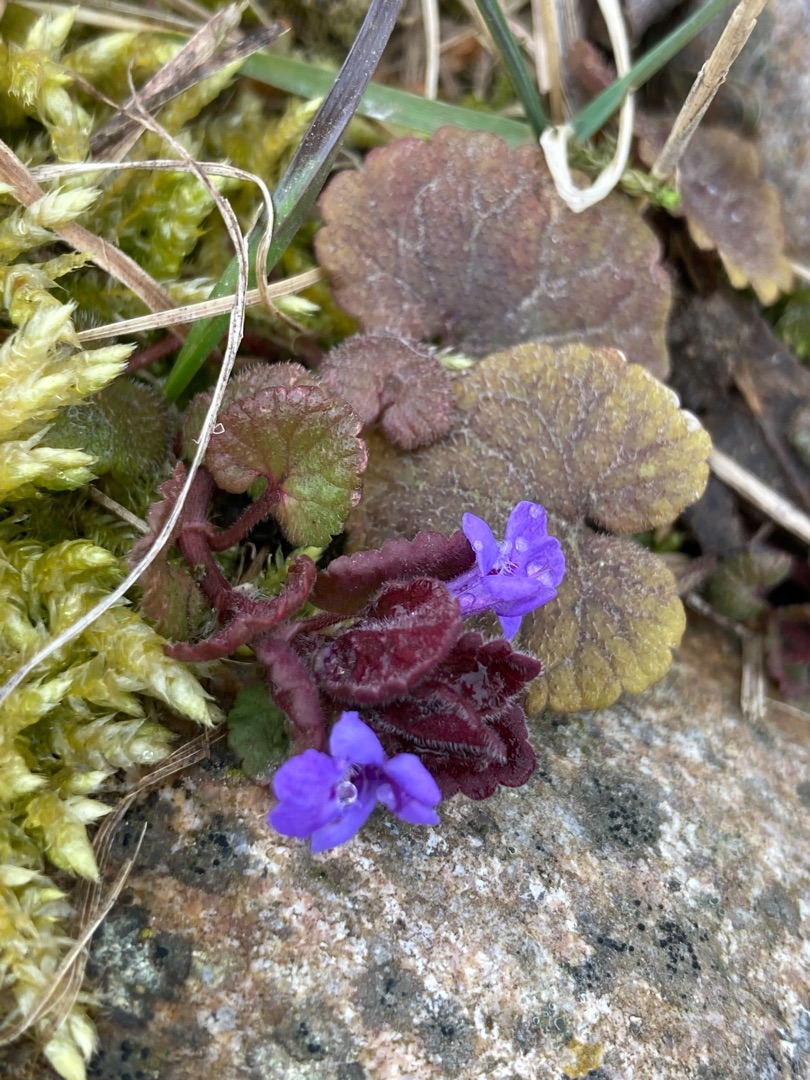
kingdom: Plantae
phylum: Tracheophyta
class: Magnoliopsida
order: Lamiales
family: Lamiaceae
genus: Glechoma
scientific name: Glechoma hederacea
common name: Korsknap
